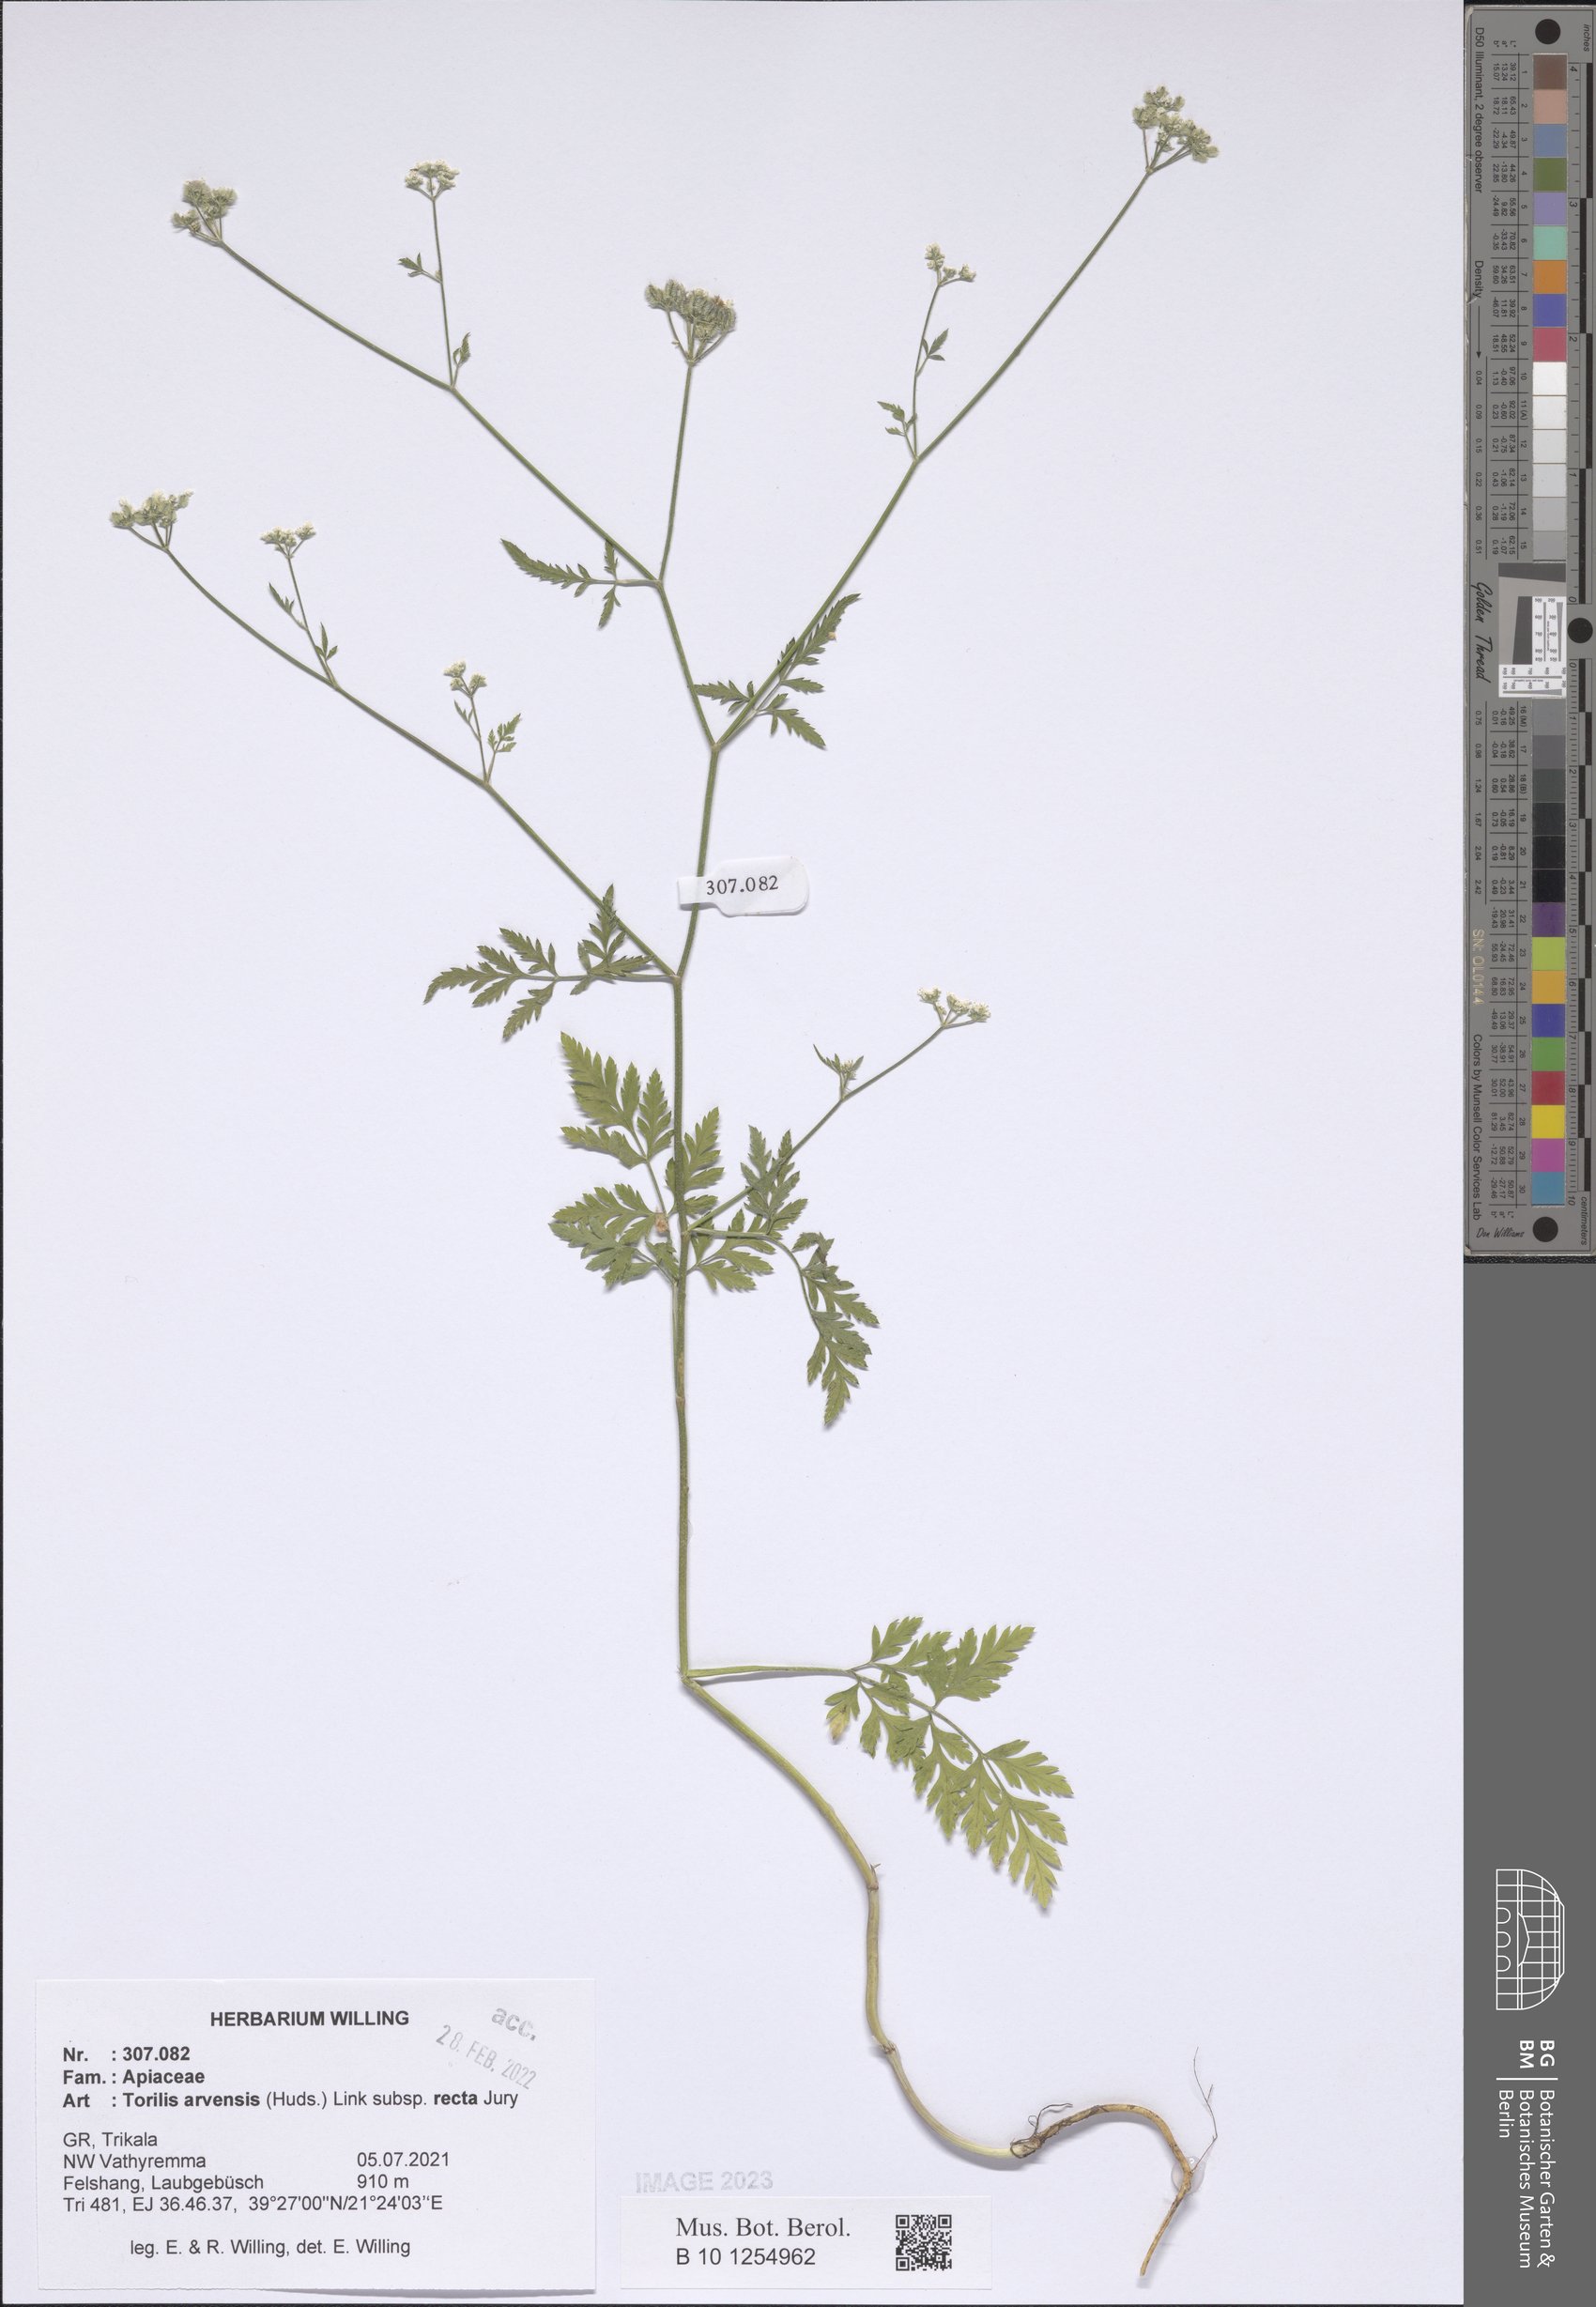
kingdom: Plantae
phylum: Tracheophyta
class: Magnoliopsida
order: Apiales
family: Apiaceae
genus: Torilis
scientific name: Torilis arvensis
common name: Spreading hedge-parsley
